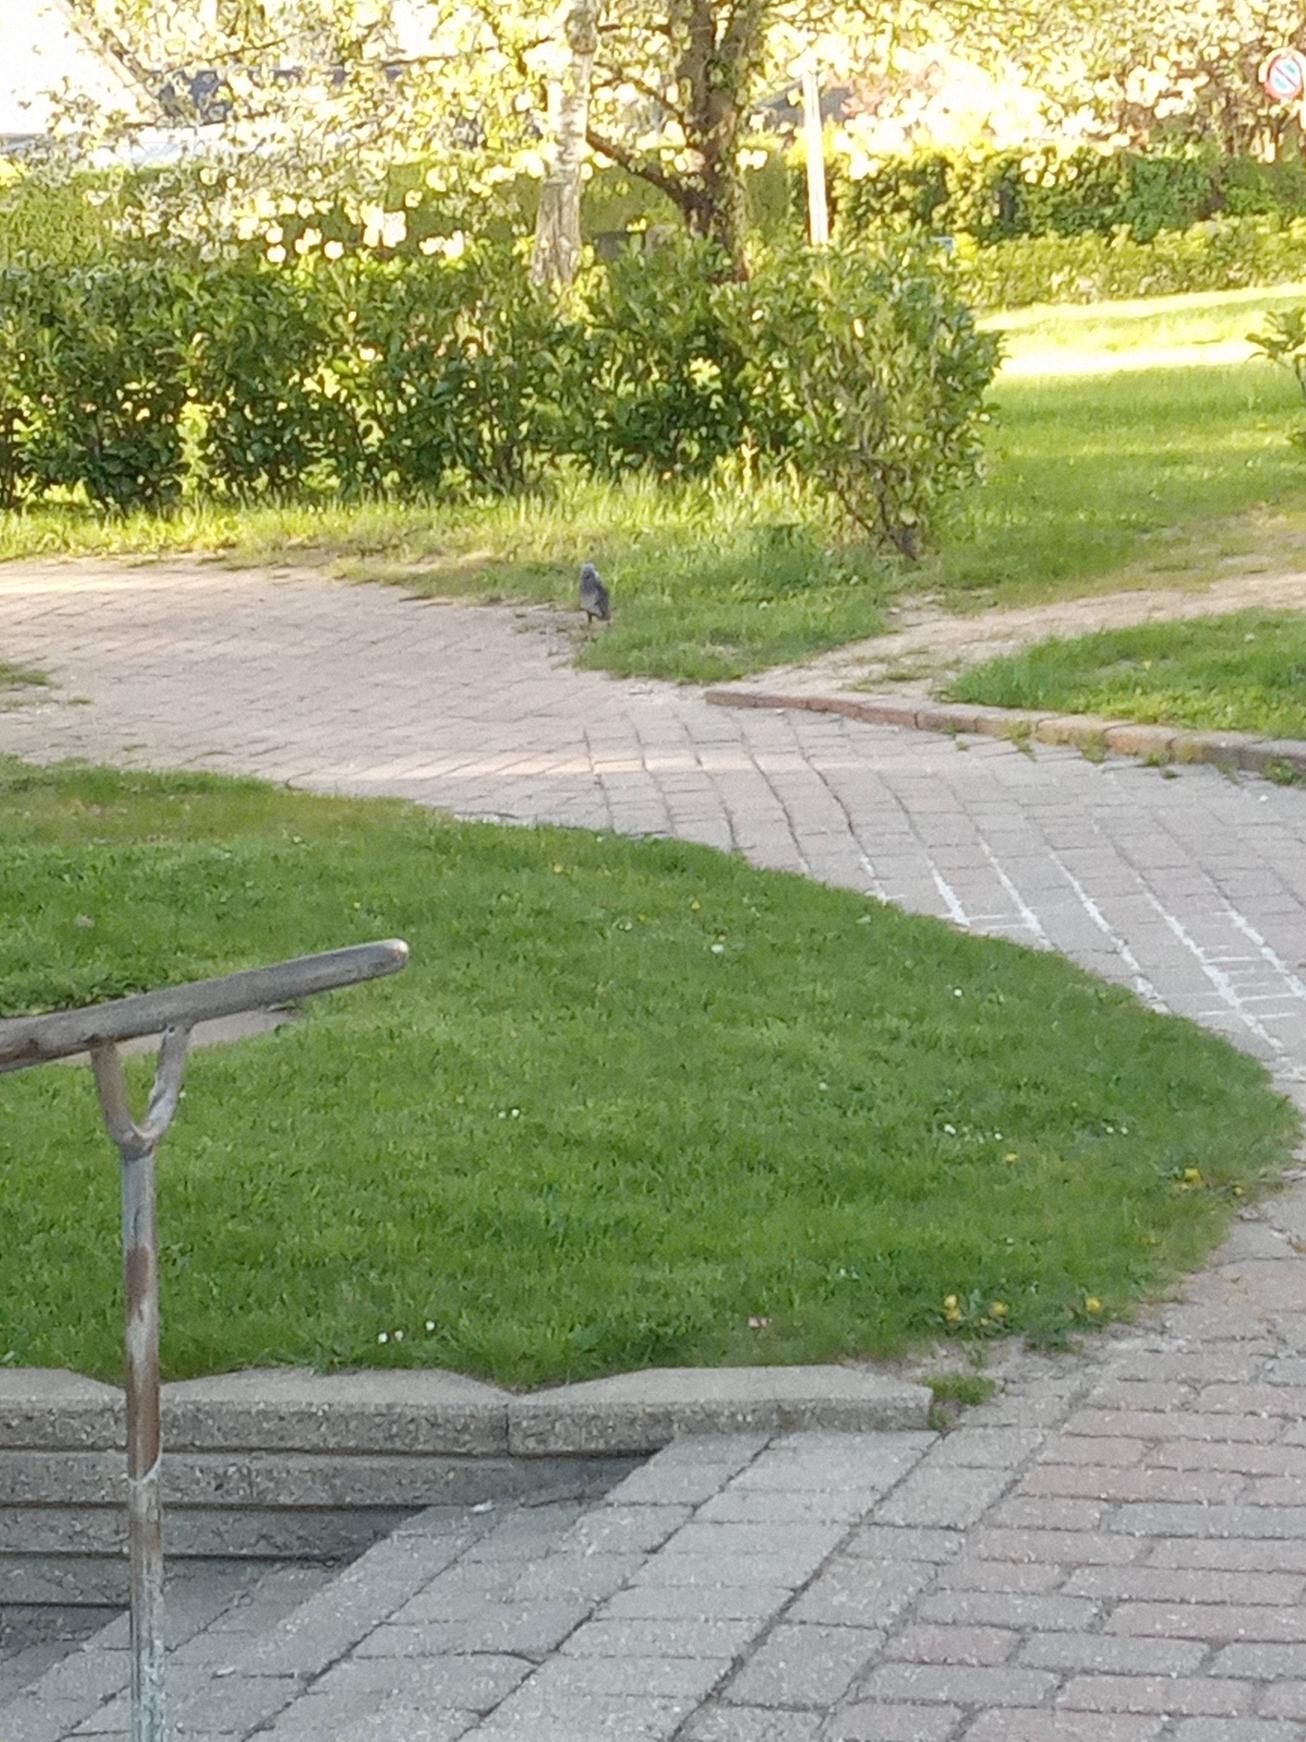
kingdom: Animalia
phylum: Chordata
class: Aves
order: Passeriformes
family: Corvidae
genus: Coloeus
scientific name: Coloeus monedula
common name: Allike
